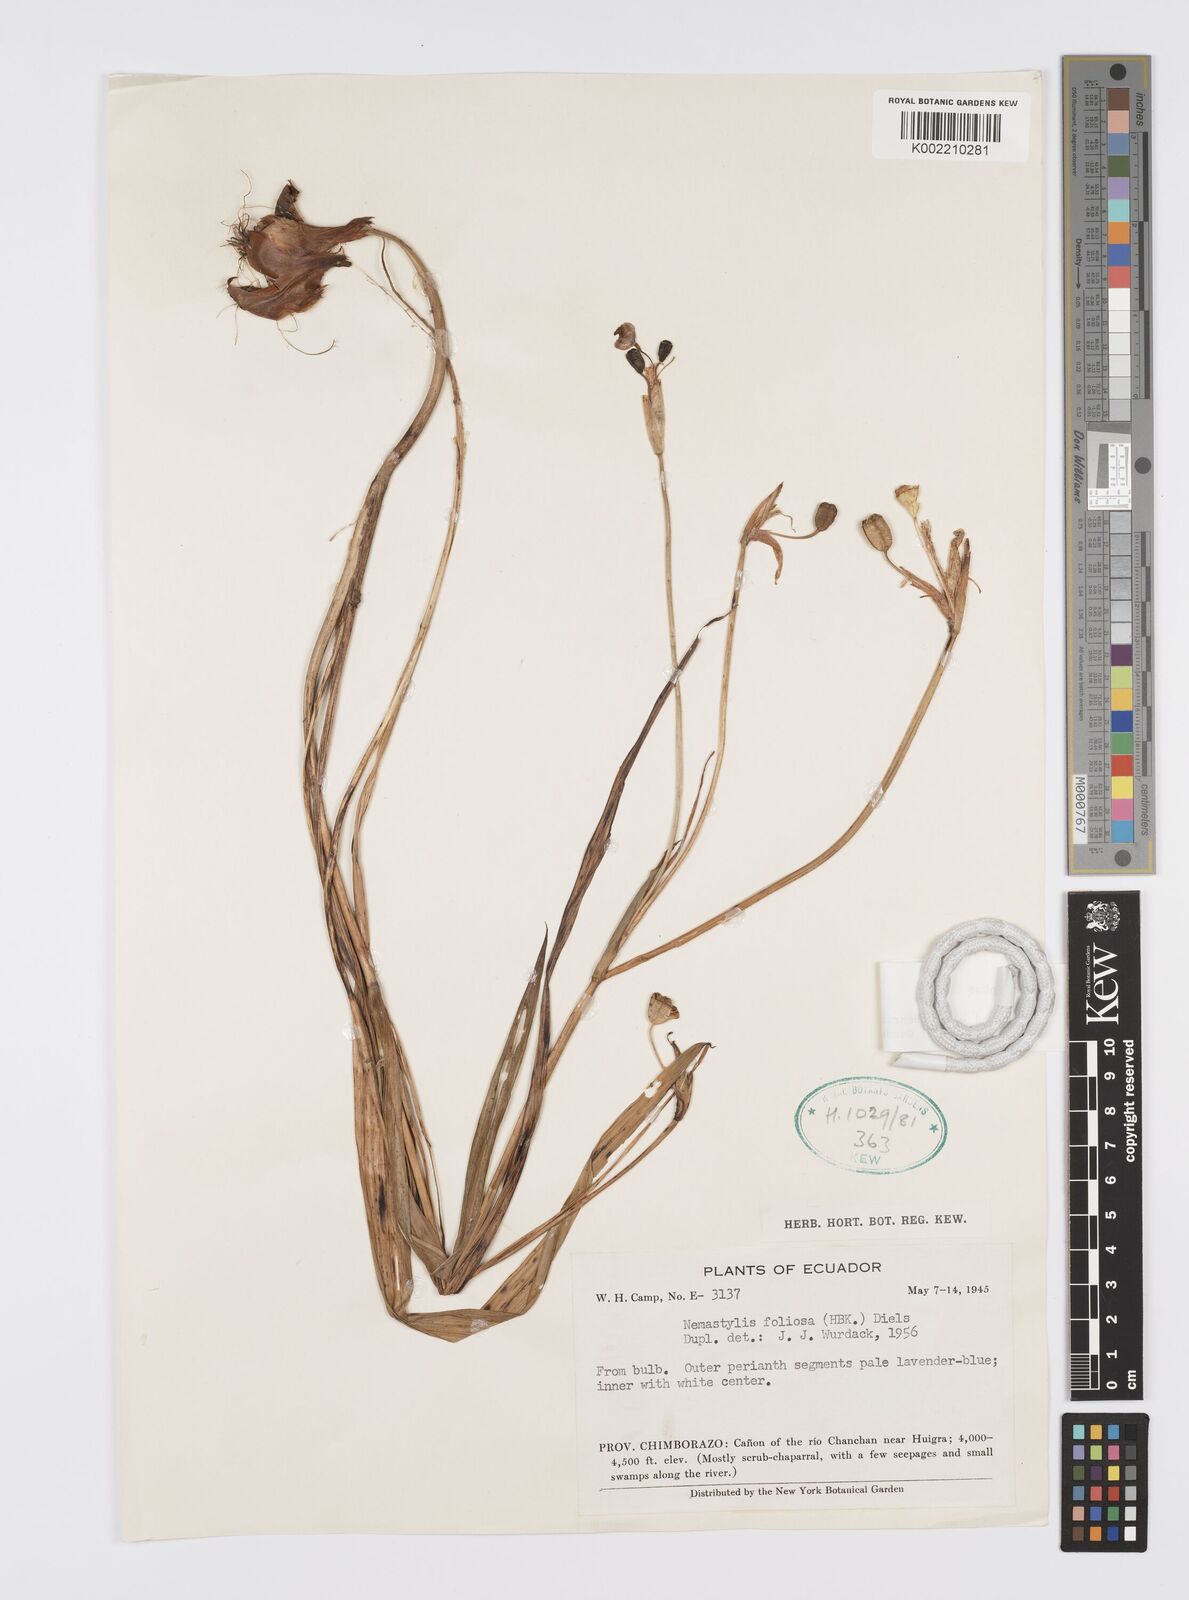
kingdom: Plantae
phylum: Tracheophyta
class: Liliopsida
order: Asparagales
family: Iridaceae
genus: Ennealophus
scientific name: Ennealophus
